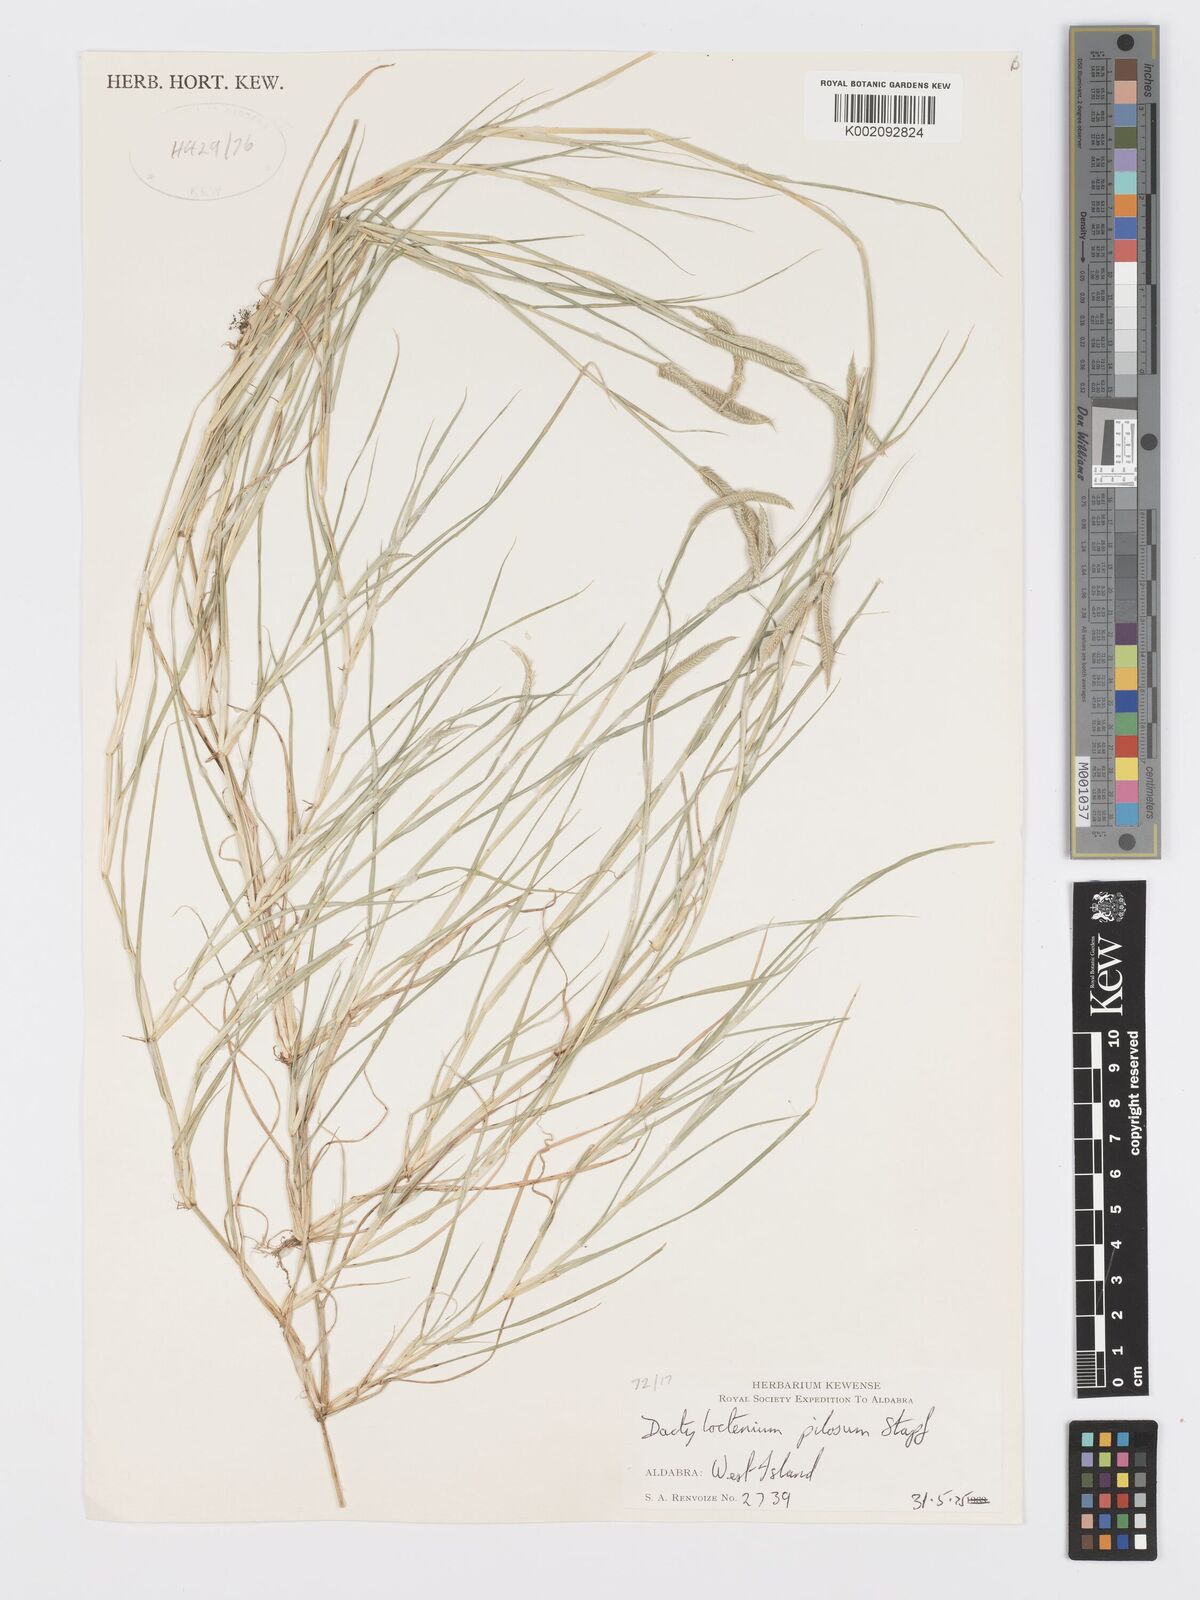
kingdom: Plantae
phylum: Tracheophyta
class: Liliopsida
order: Poales
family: Poaceae
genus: Dactyloctenium
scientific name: Dactyloctenium pilosum
